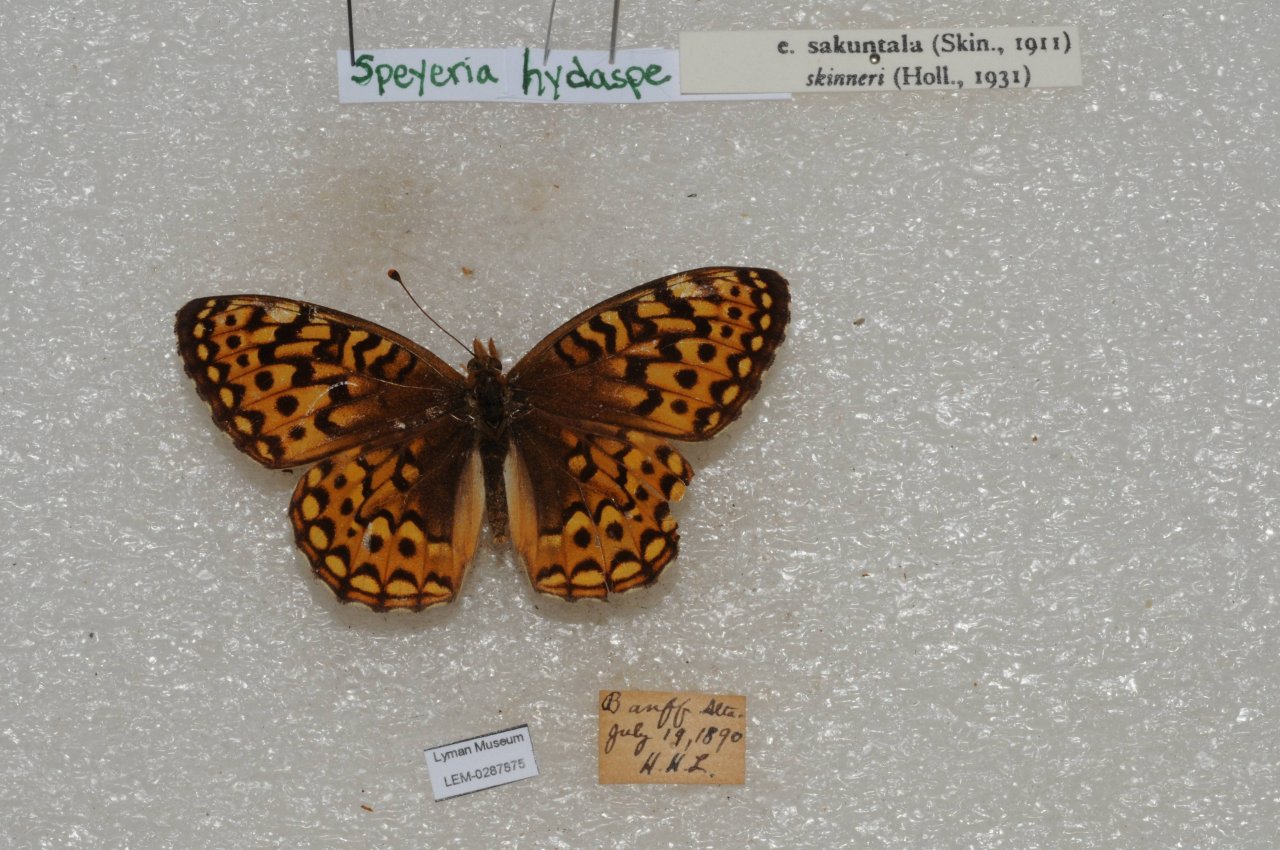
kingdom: Animalia
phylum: Arthropoda
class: Insecta
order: Lepidoptera
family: Nymphalidae
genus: Speyeria
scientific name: Speyeria hydaspe
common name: Hydaspe Fritillary
